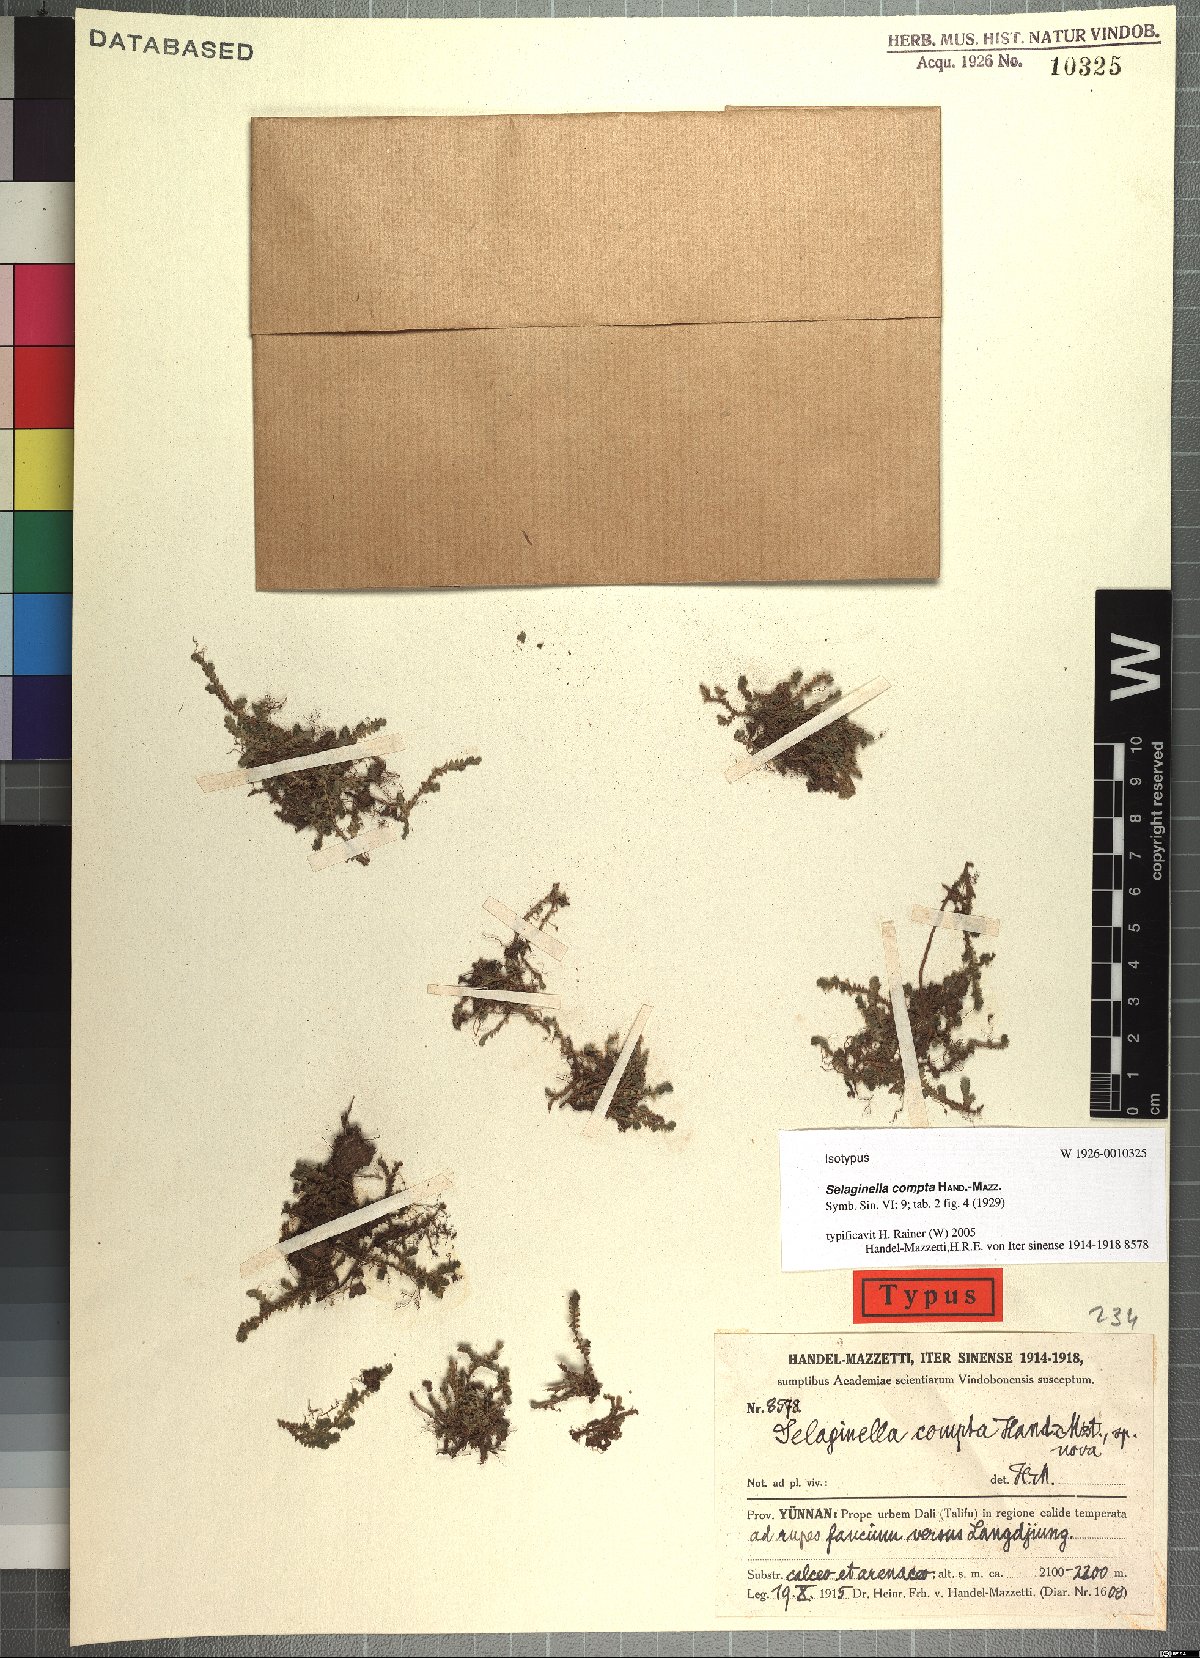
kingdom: Plantae
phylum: Tracheophyta
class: Lycopodiopsida
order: Selaginellales
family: Selaginellaceae
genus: Selaginella
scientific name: Selaginella vaginata
